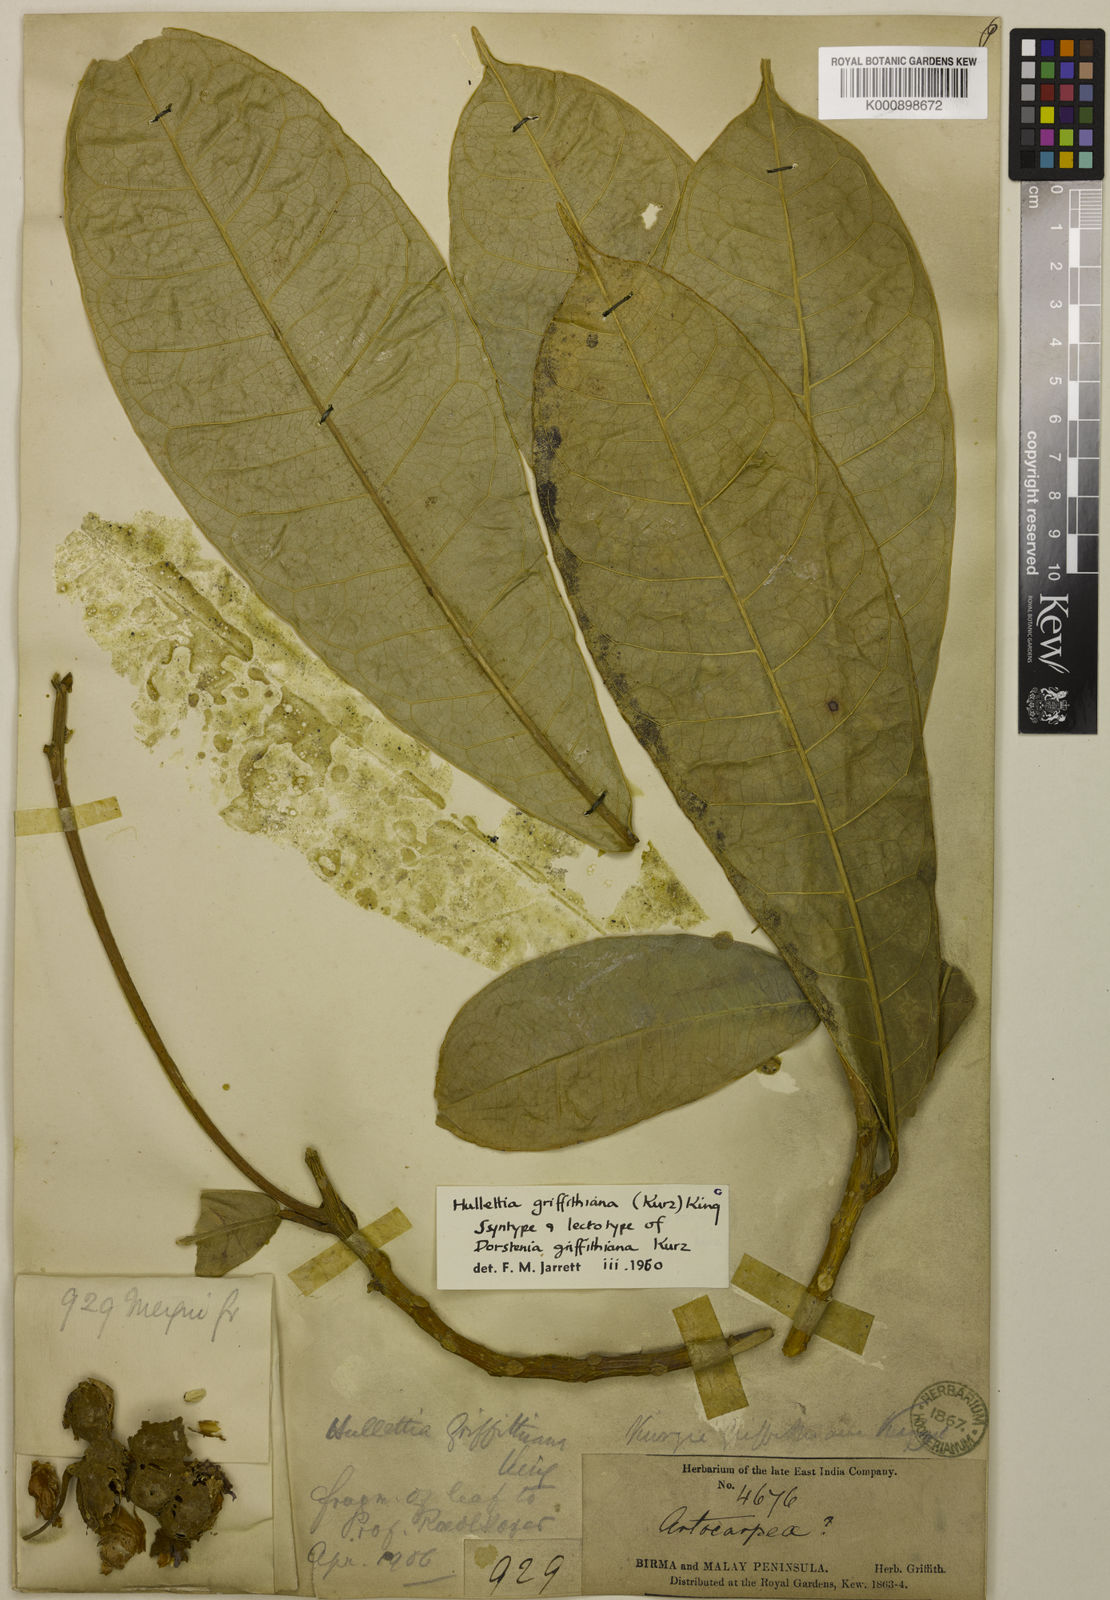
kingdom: Plantae
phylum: Tracheophyta
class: Magnoliopsida
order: Rosales
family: Moraceae
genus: Hullettia
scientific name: Hullettia
